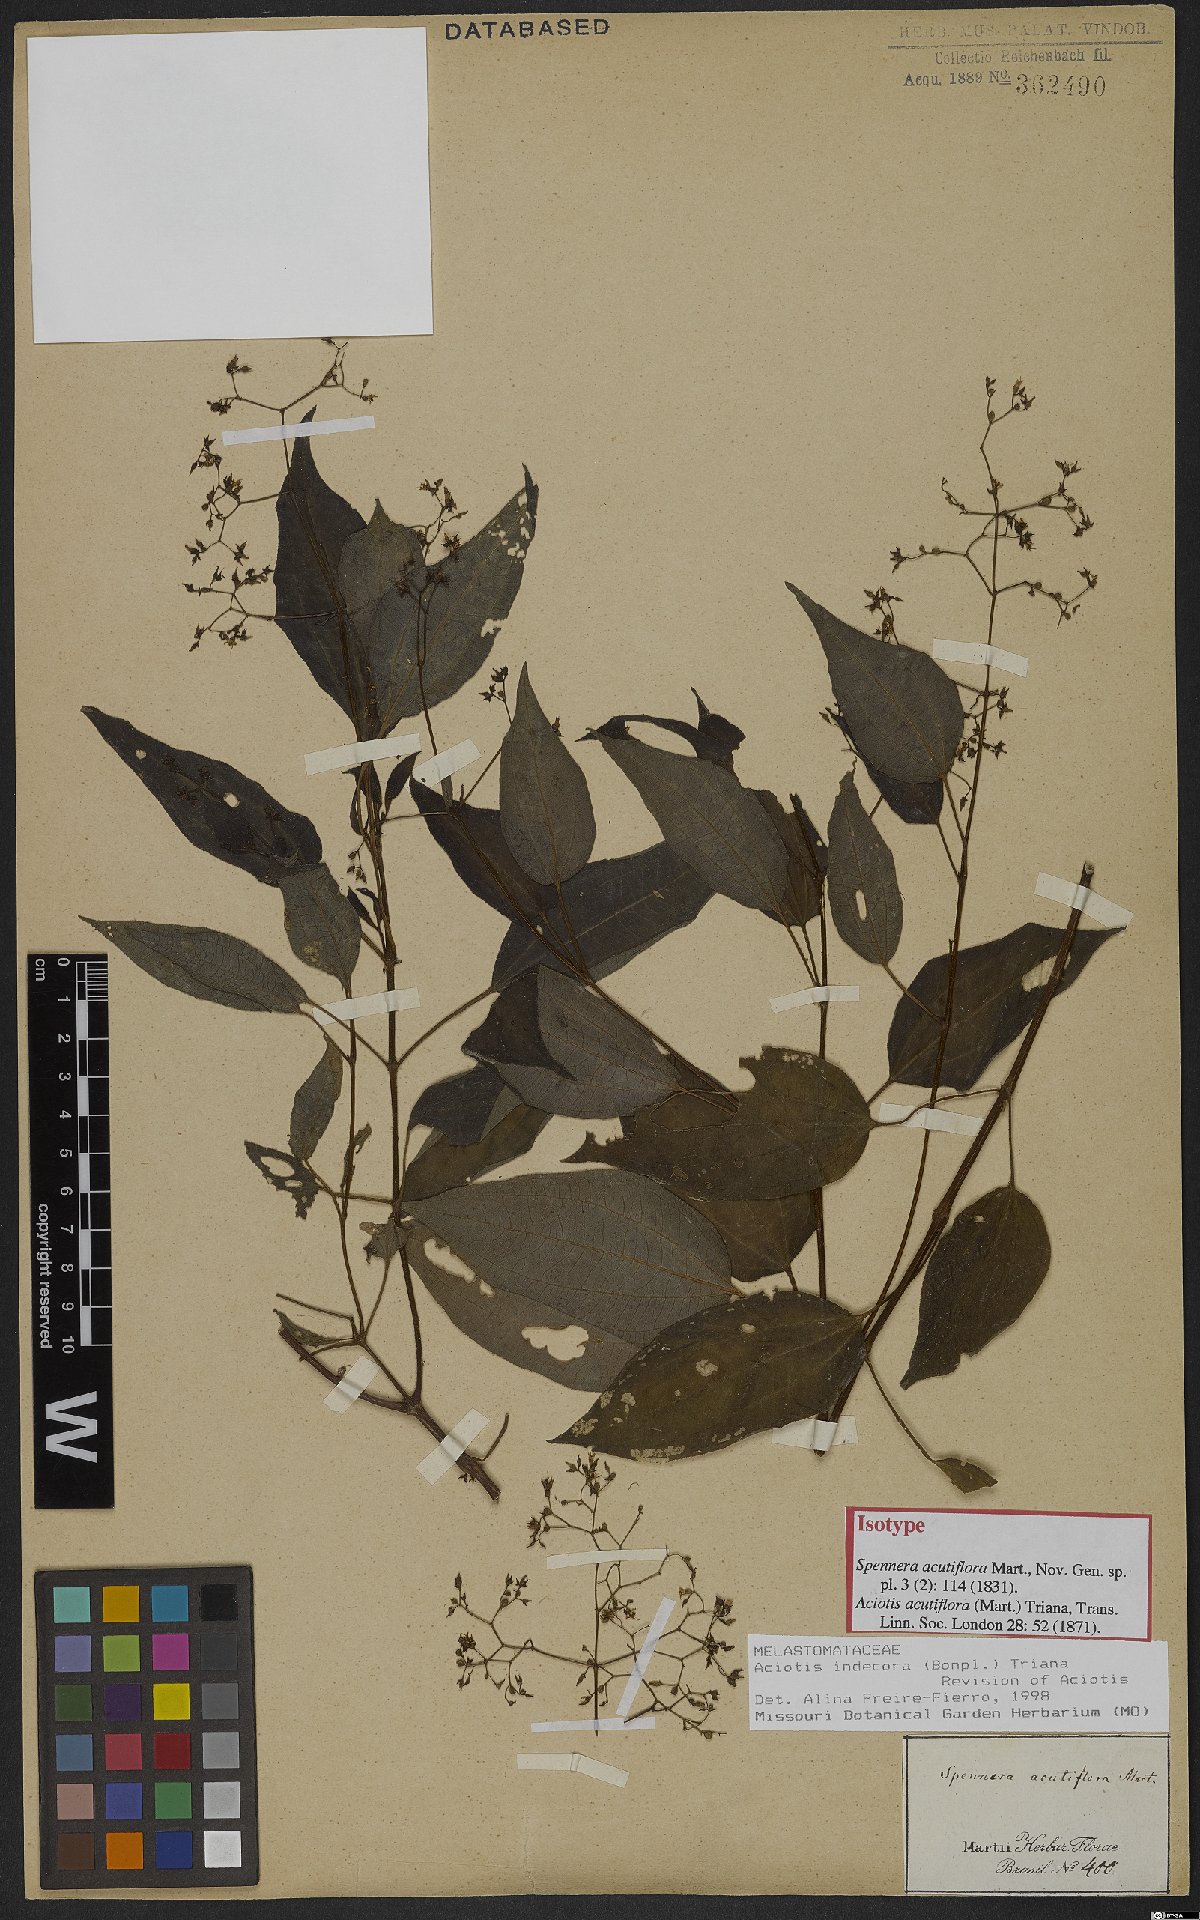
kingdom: Plantae
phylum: Tracheophyta
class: Magnoliopsida
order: Myrtales
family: Melastomataceae
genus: Aciotis
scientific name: Aciotis indecora
